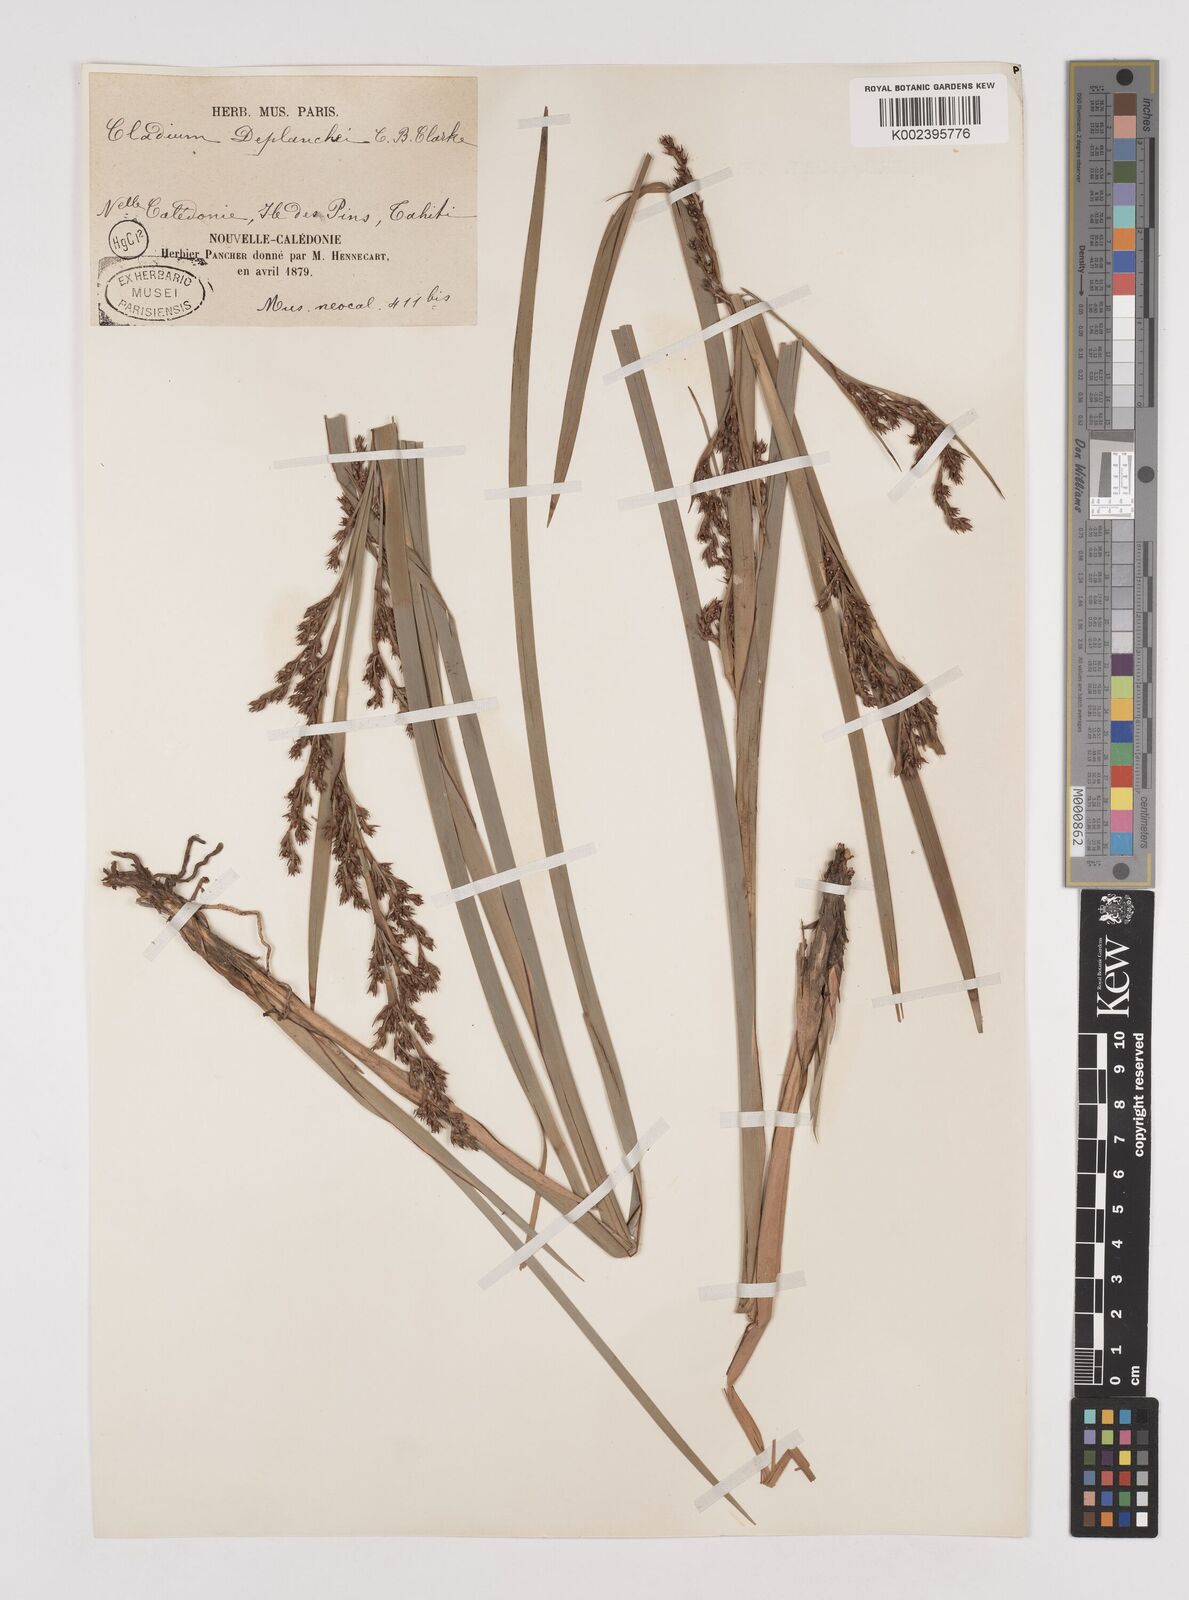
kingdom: Plantae
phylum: Tracheophyta
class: Liliopsida
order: Poales
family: Cyperaceae
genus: Machaerina
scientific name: Machaerina deplanchei
